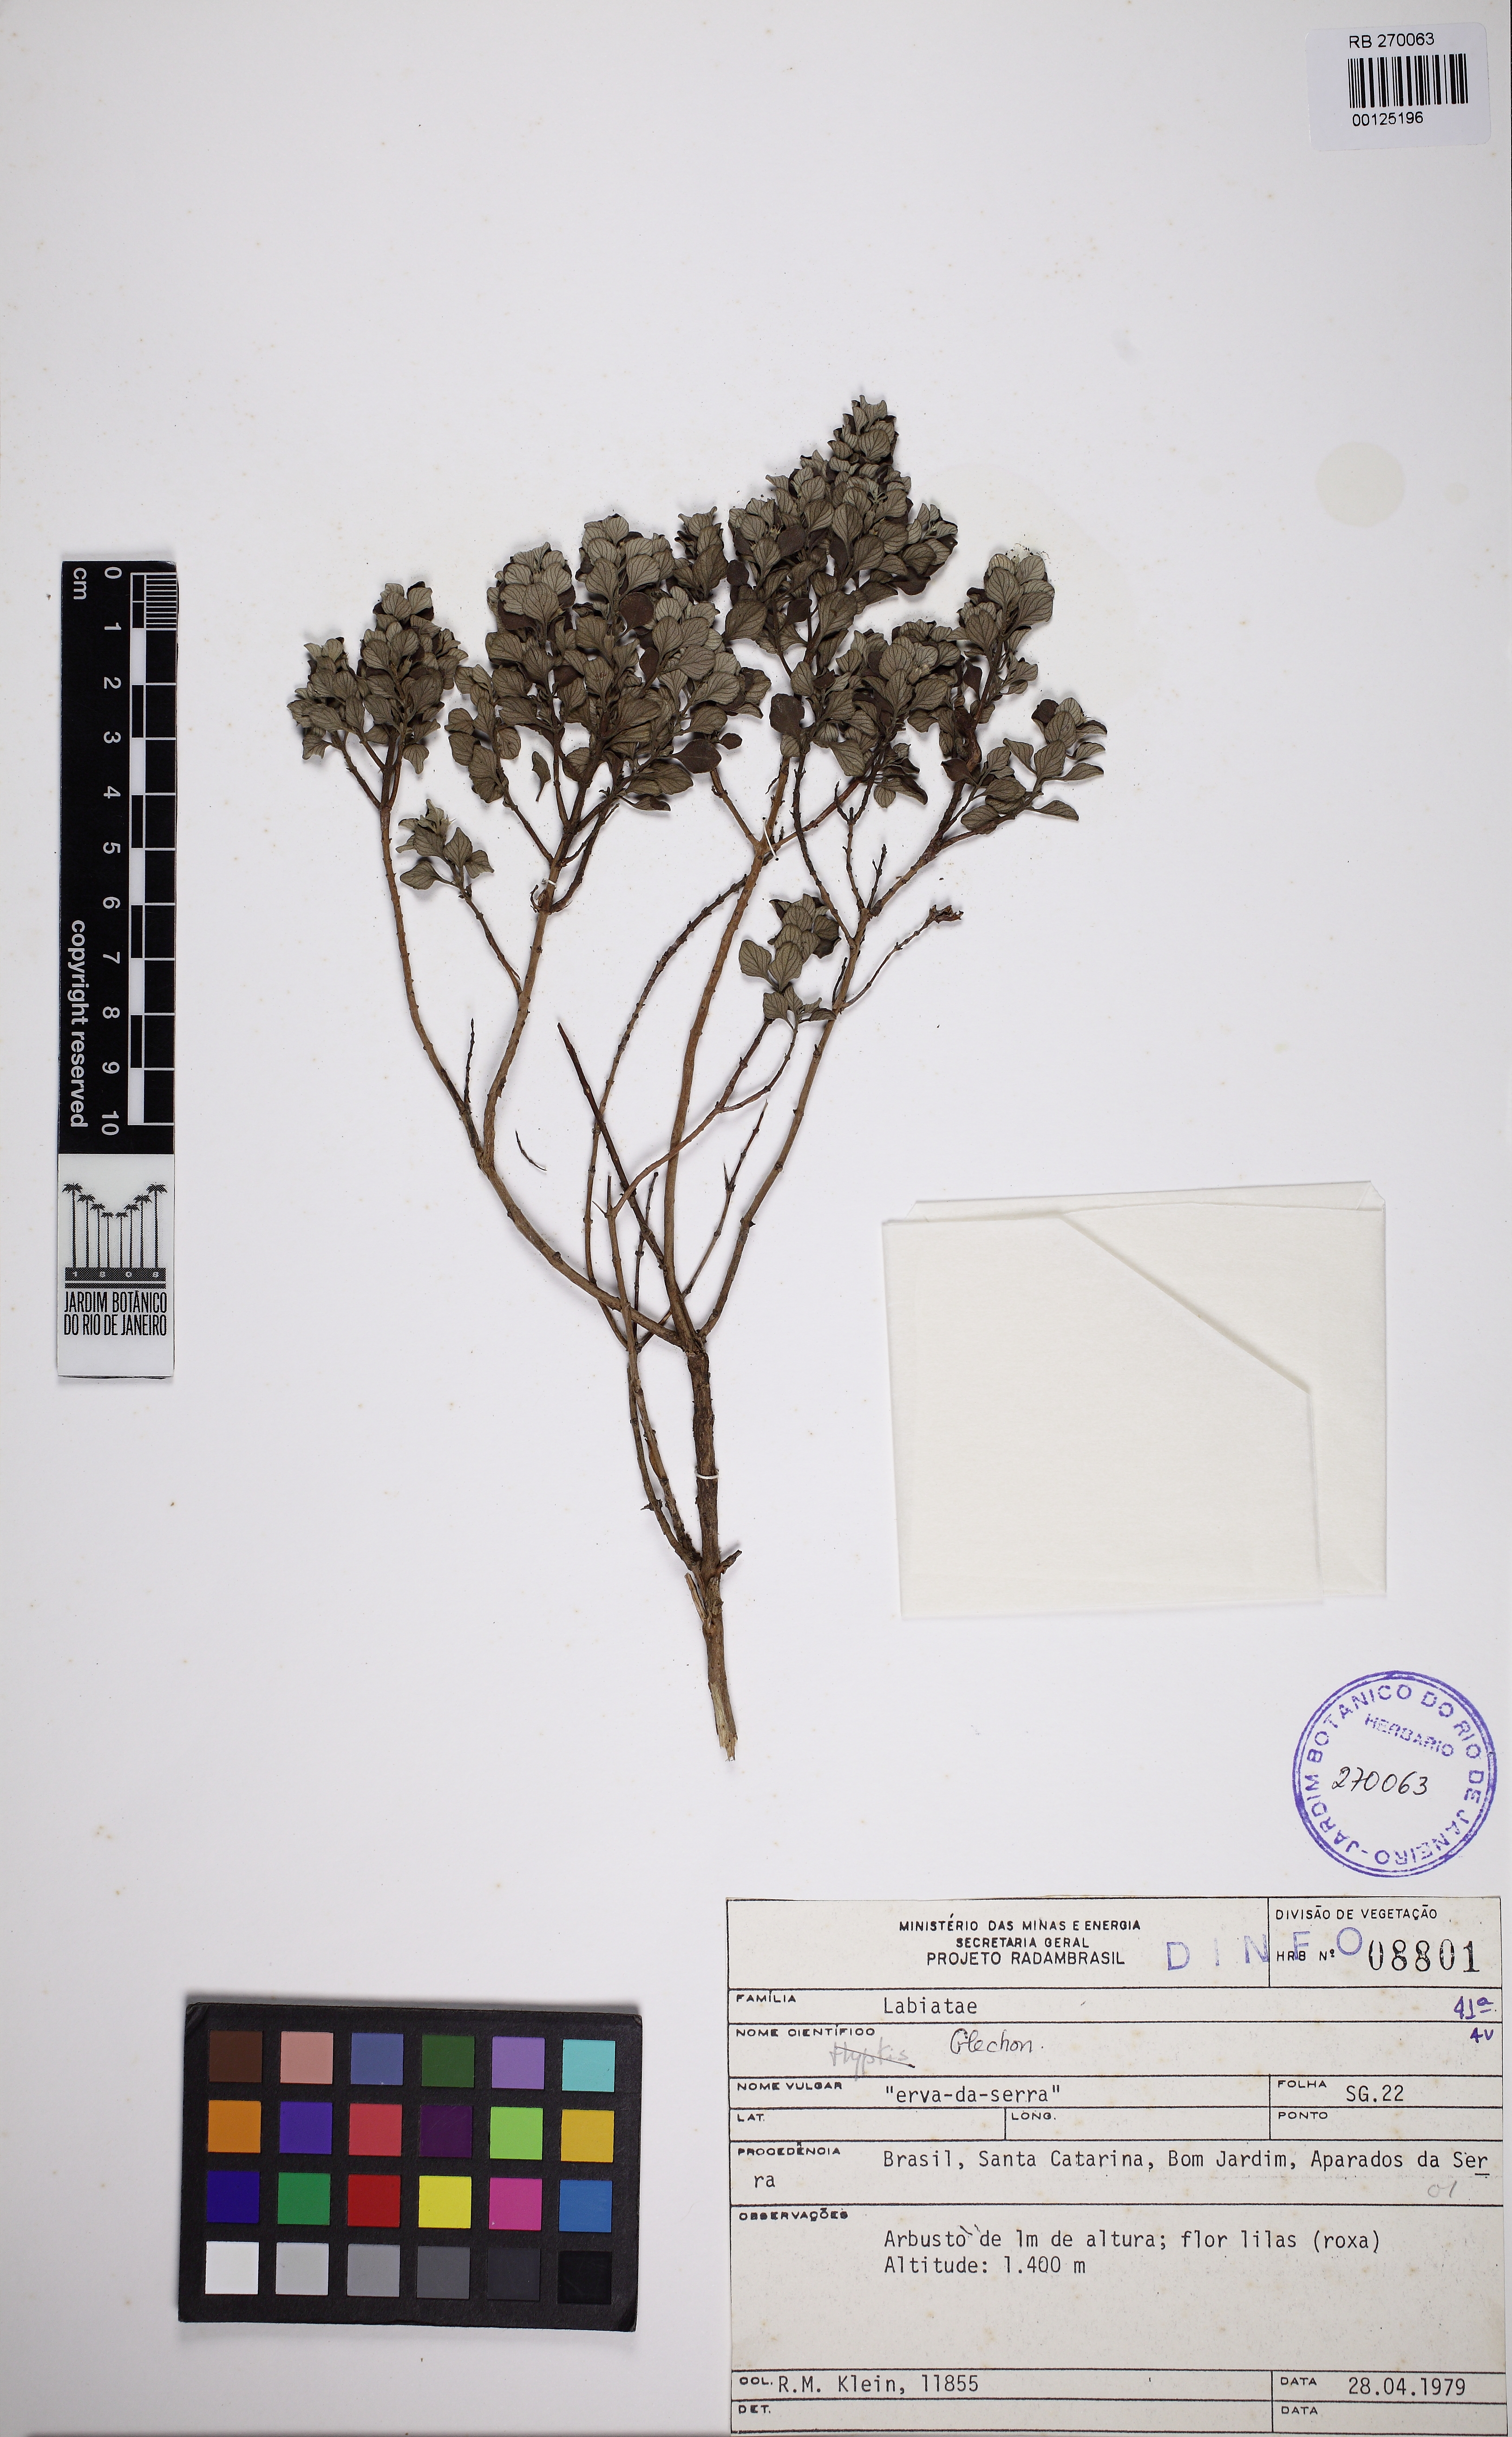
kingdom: Plantae
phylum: Tracheophyta
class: Magnoliopsida
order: Lamiales
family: Lamiaceae
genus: Glechon
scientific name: Glechon discolor
